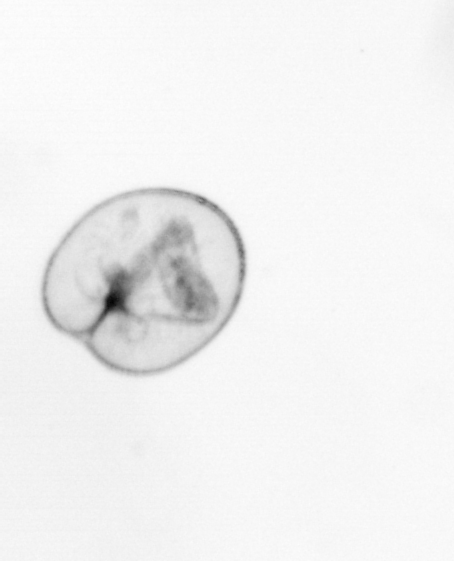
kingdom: Chromista
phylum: Myzozoa
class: Dinophyceae
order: Noctilucales
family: Noctilucaceae
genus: Noctiluca
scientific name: Noctiluca scintillans
